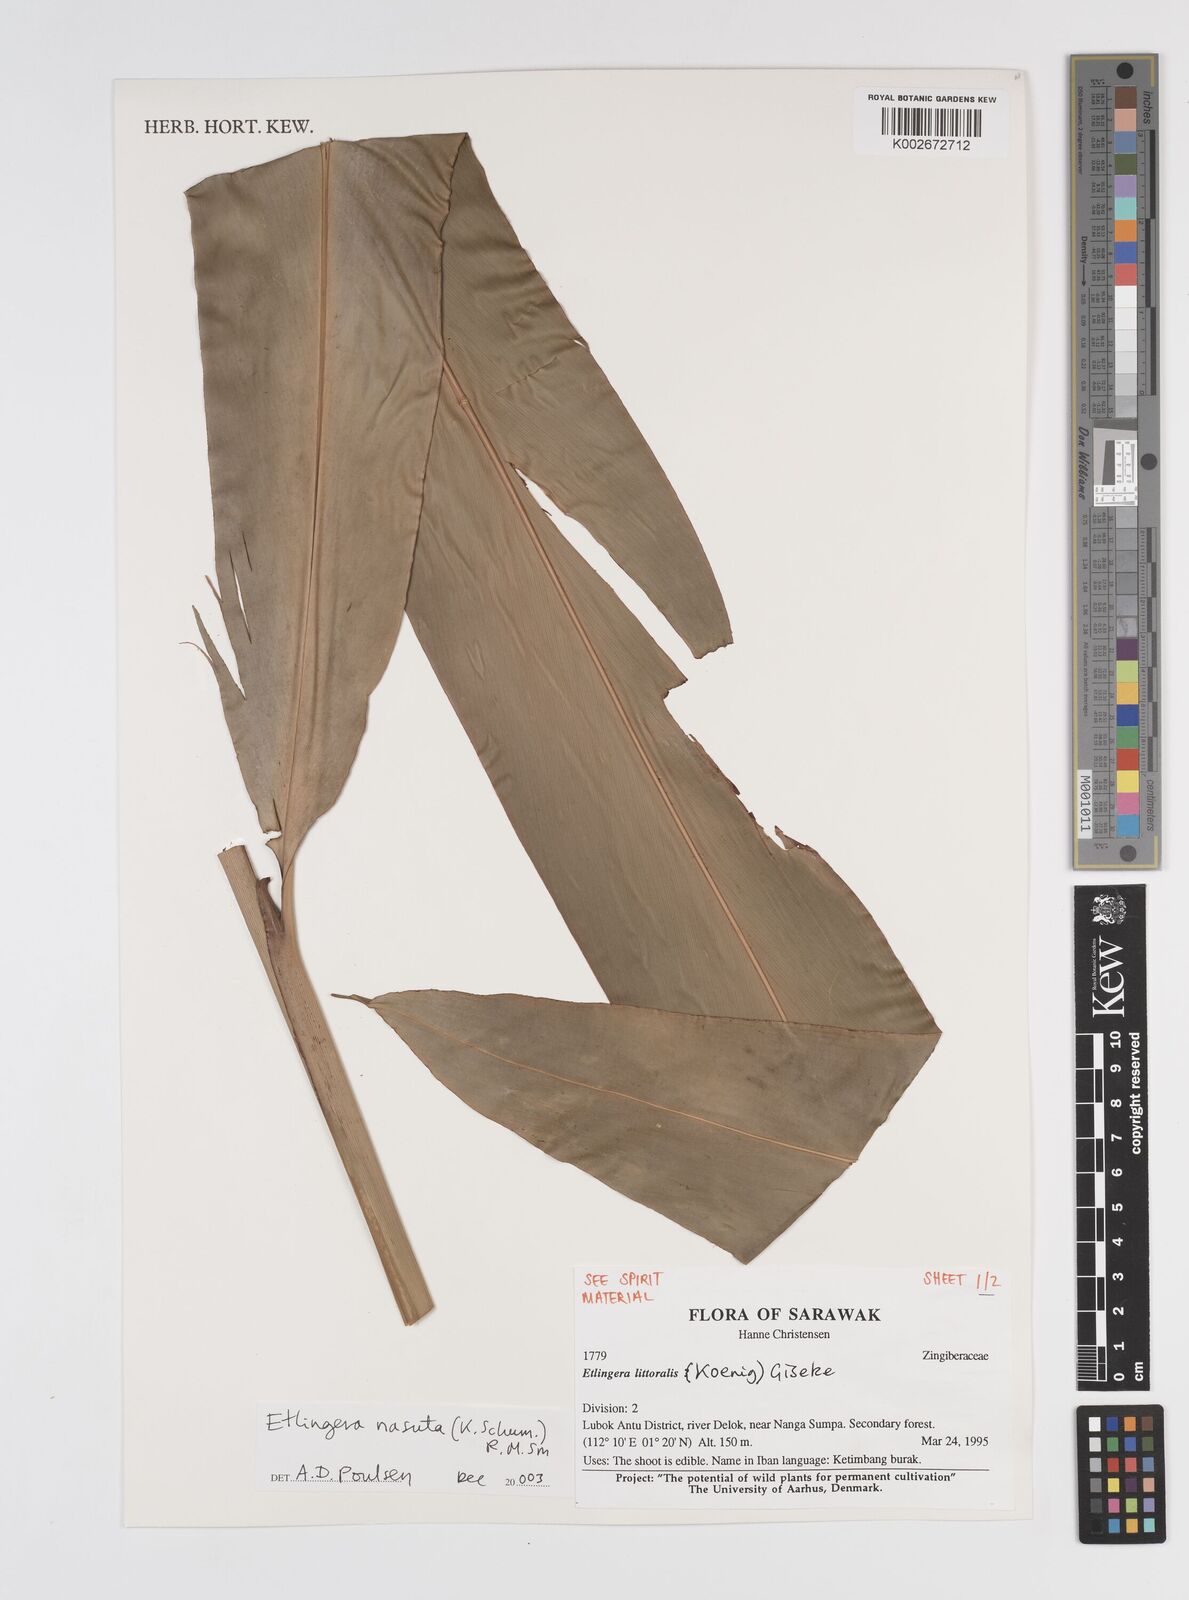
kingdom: Plantae
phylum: Tracheophyta
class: Liliopsida
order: Zingiberales
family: Zingiberaceae
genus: Etlingera
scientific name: Etlingera nasuta
